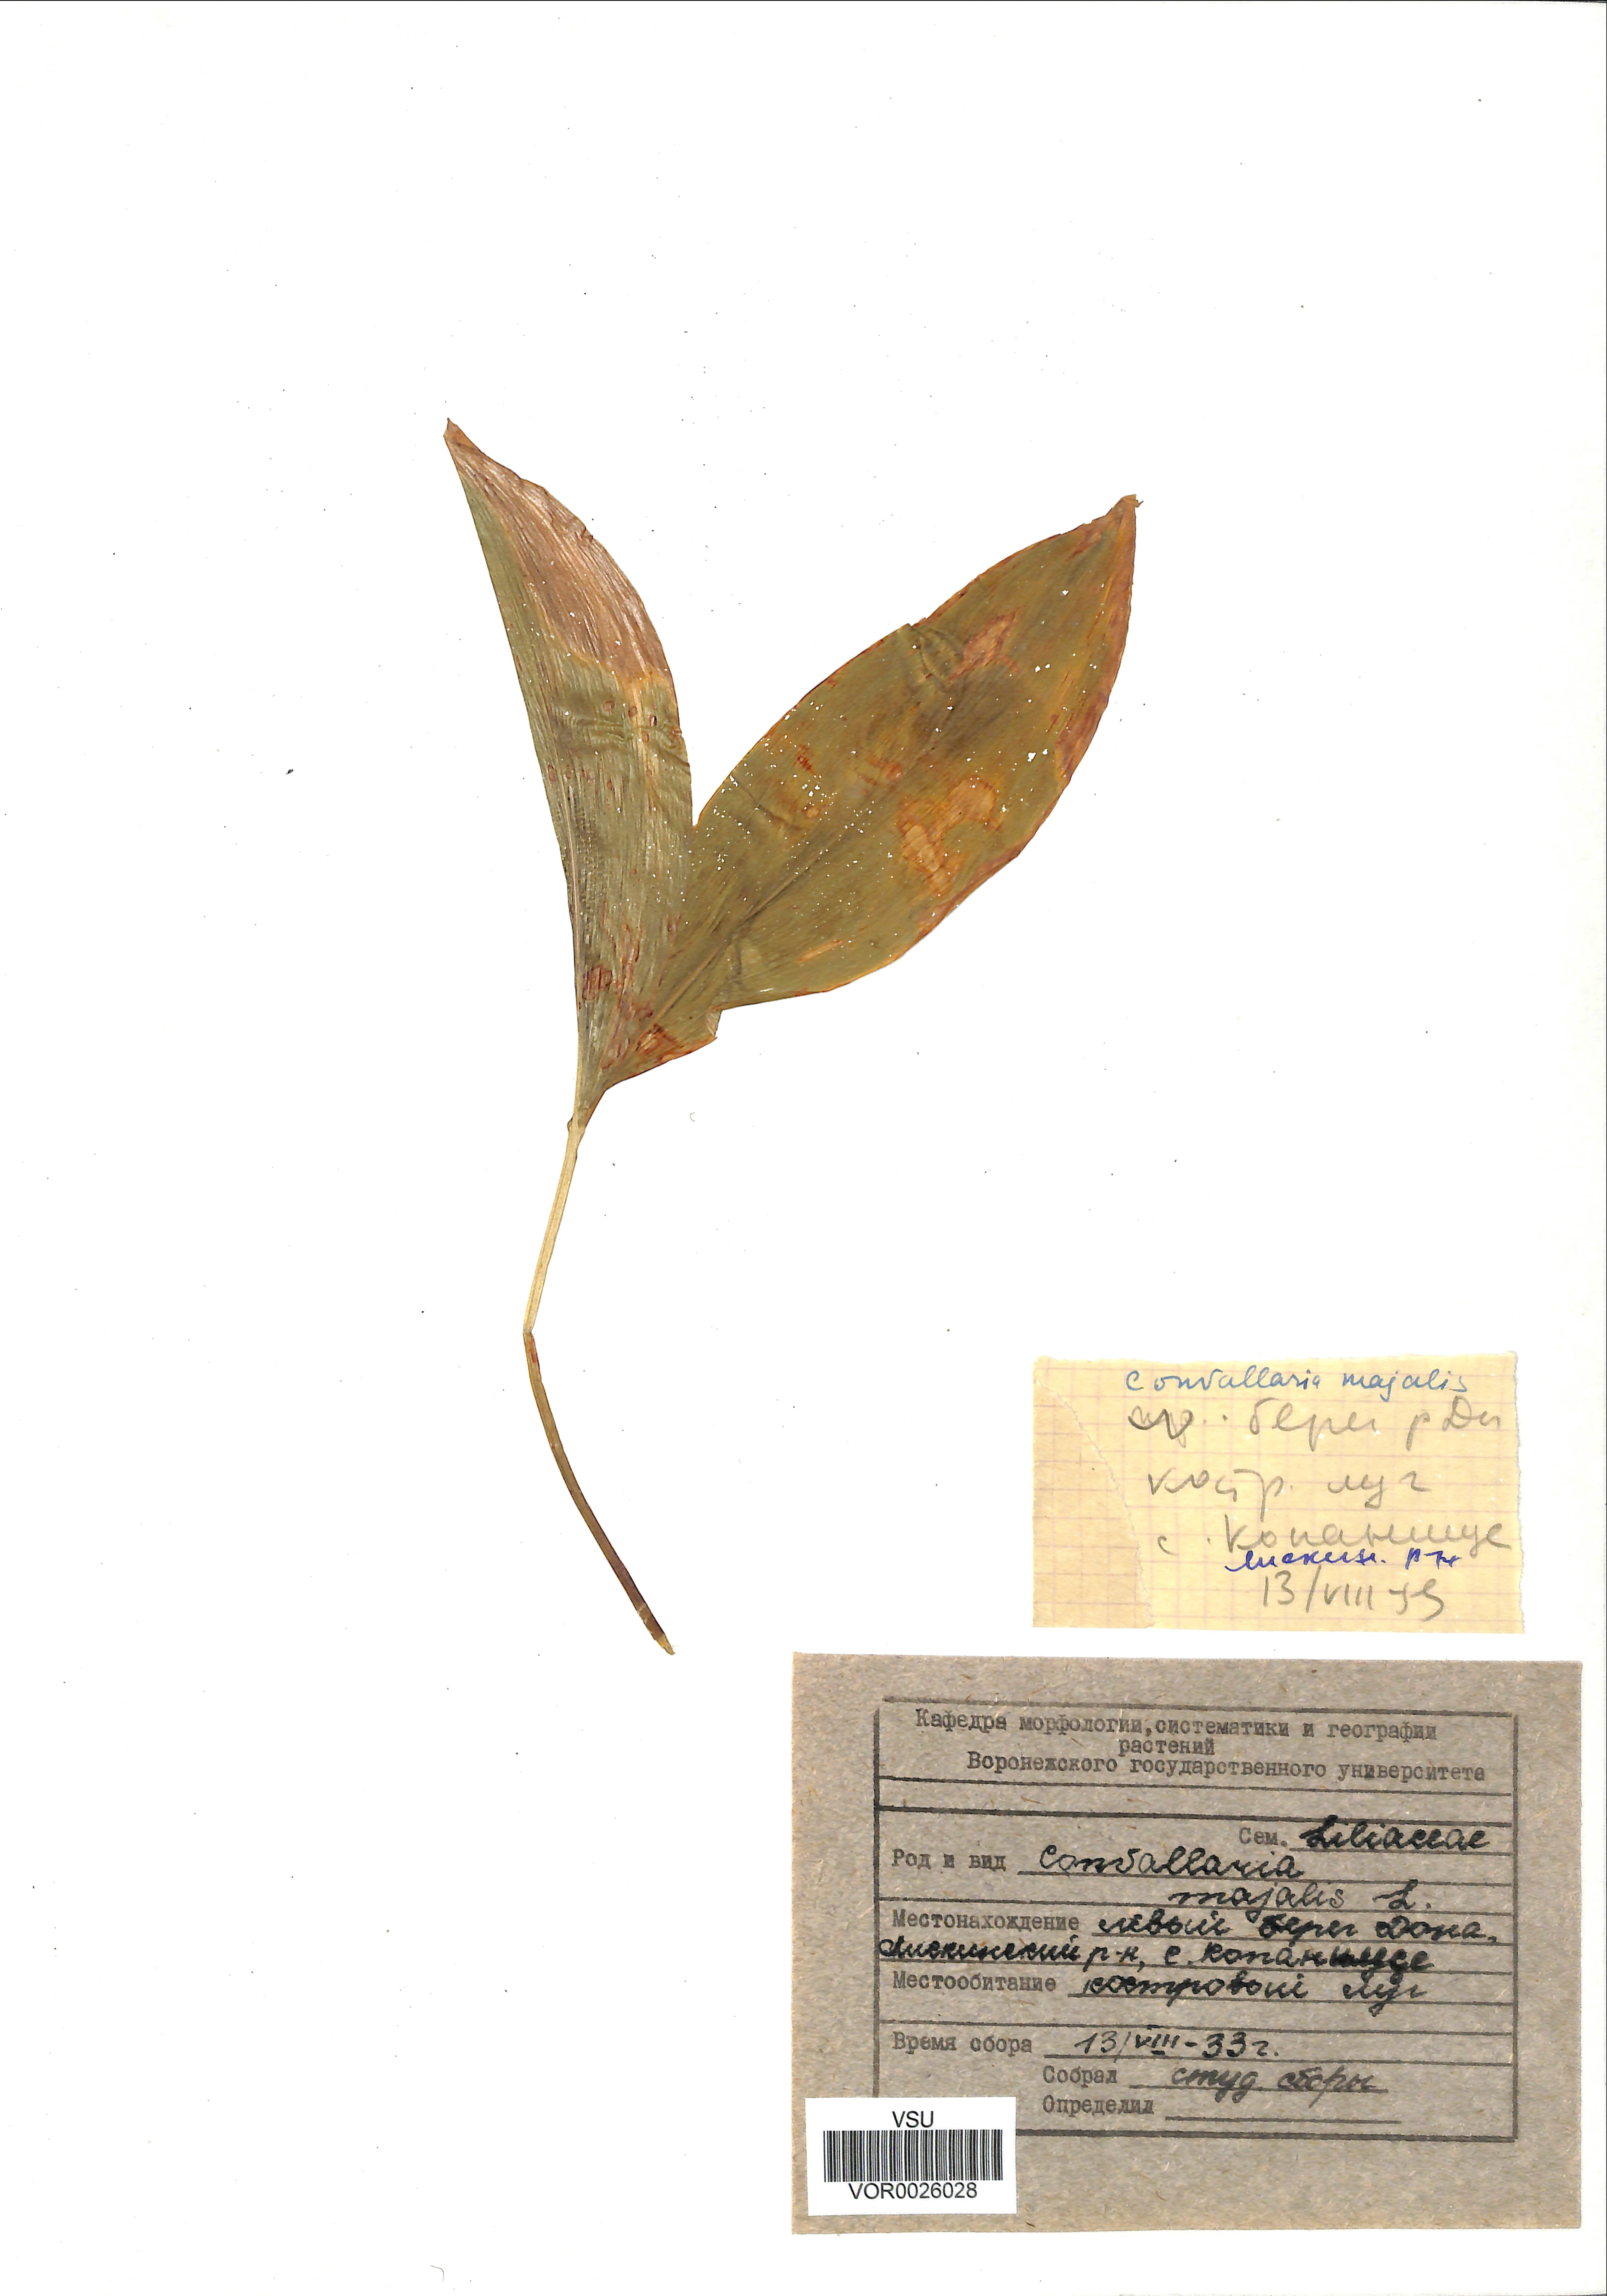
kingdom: Plantae
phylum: Tracheophyta
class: Liliopsida
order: Asparagales
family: Asparagaceae
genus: Convallaria
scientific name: Convallaria majalis
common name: Lily-of-the-valley
